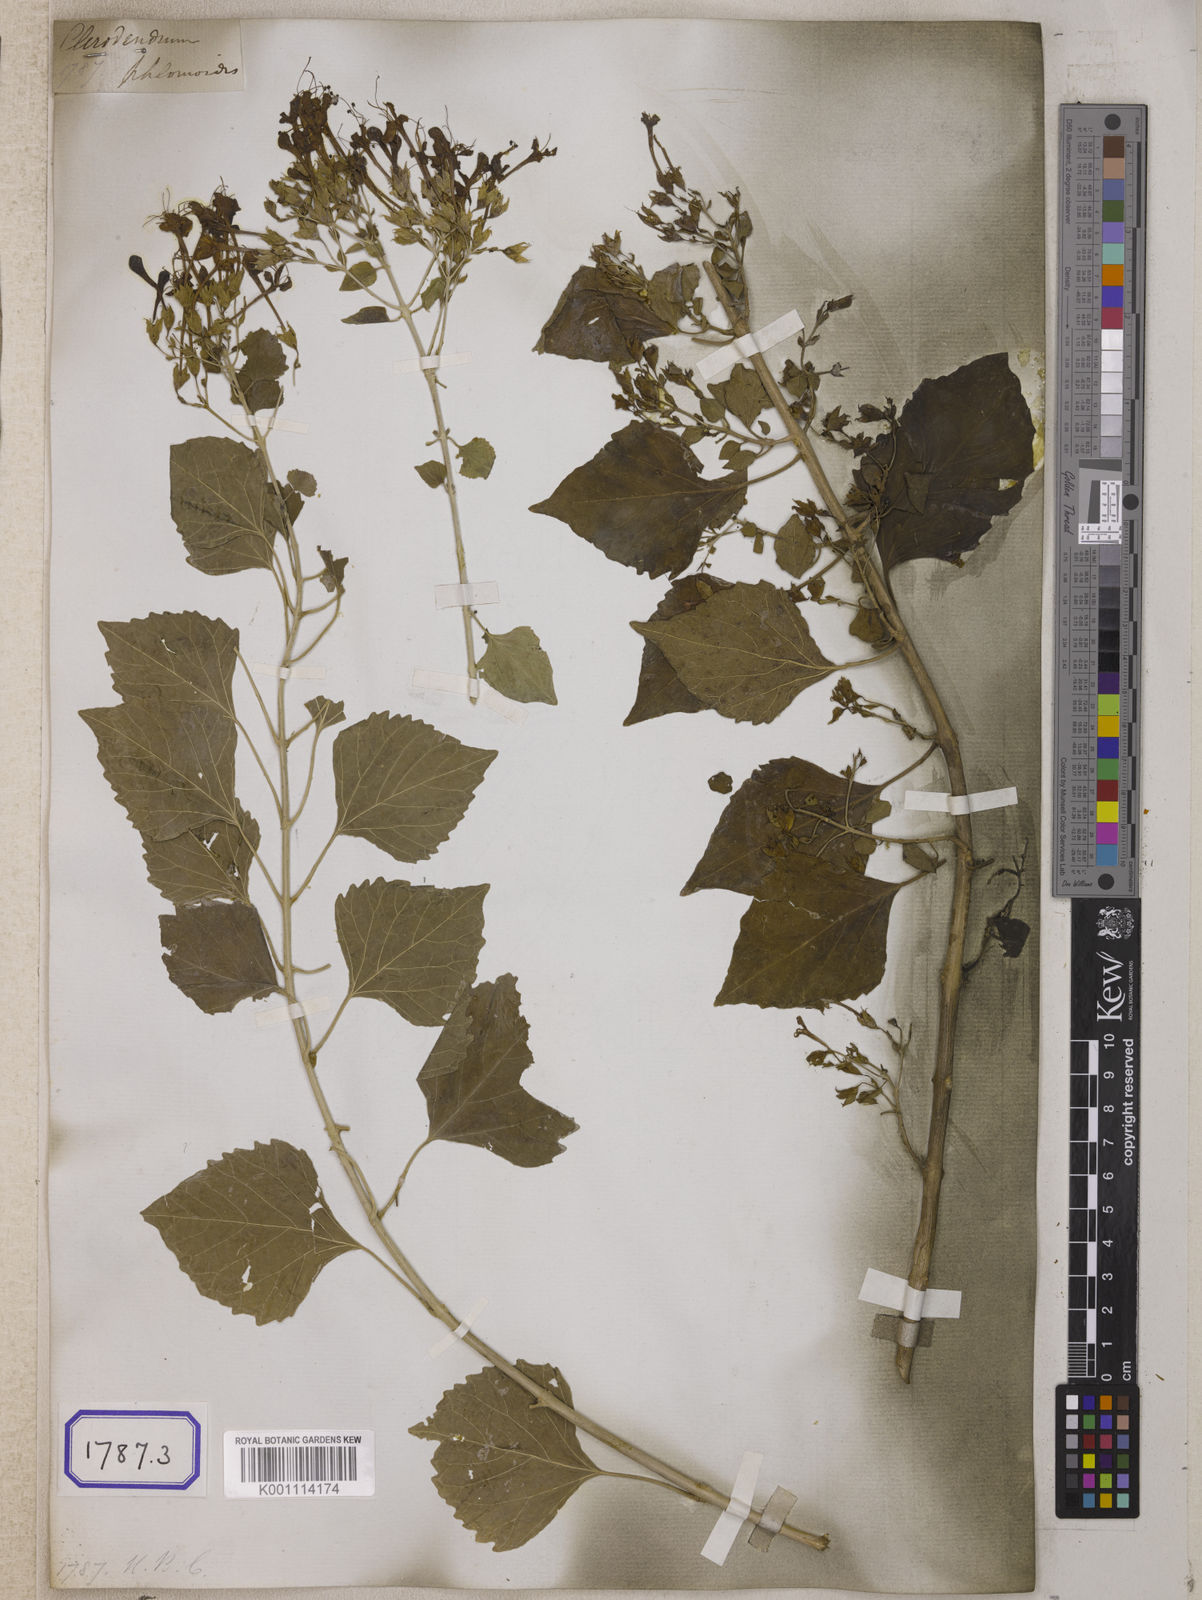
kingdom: Plantae
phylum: Tracheophyta
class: Magnoliopsida
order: Lamiales
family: Lamiaceae
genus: Clerodendrum
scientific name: Clerodendrum
